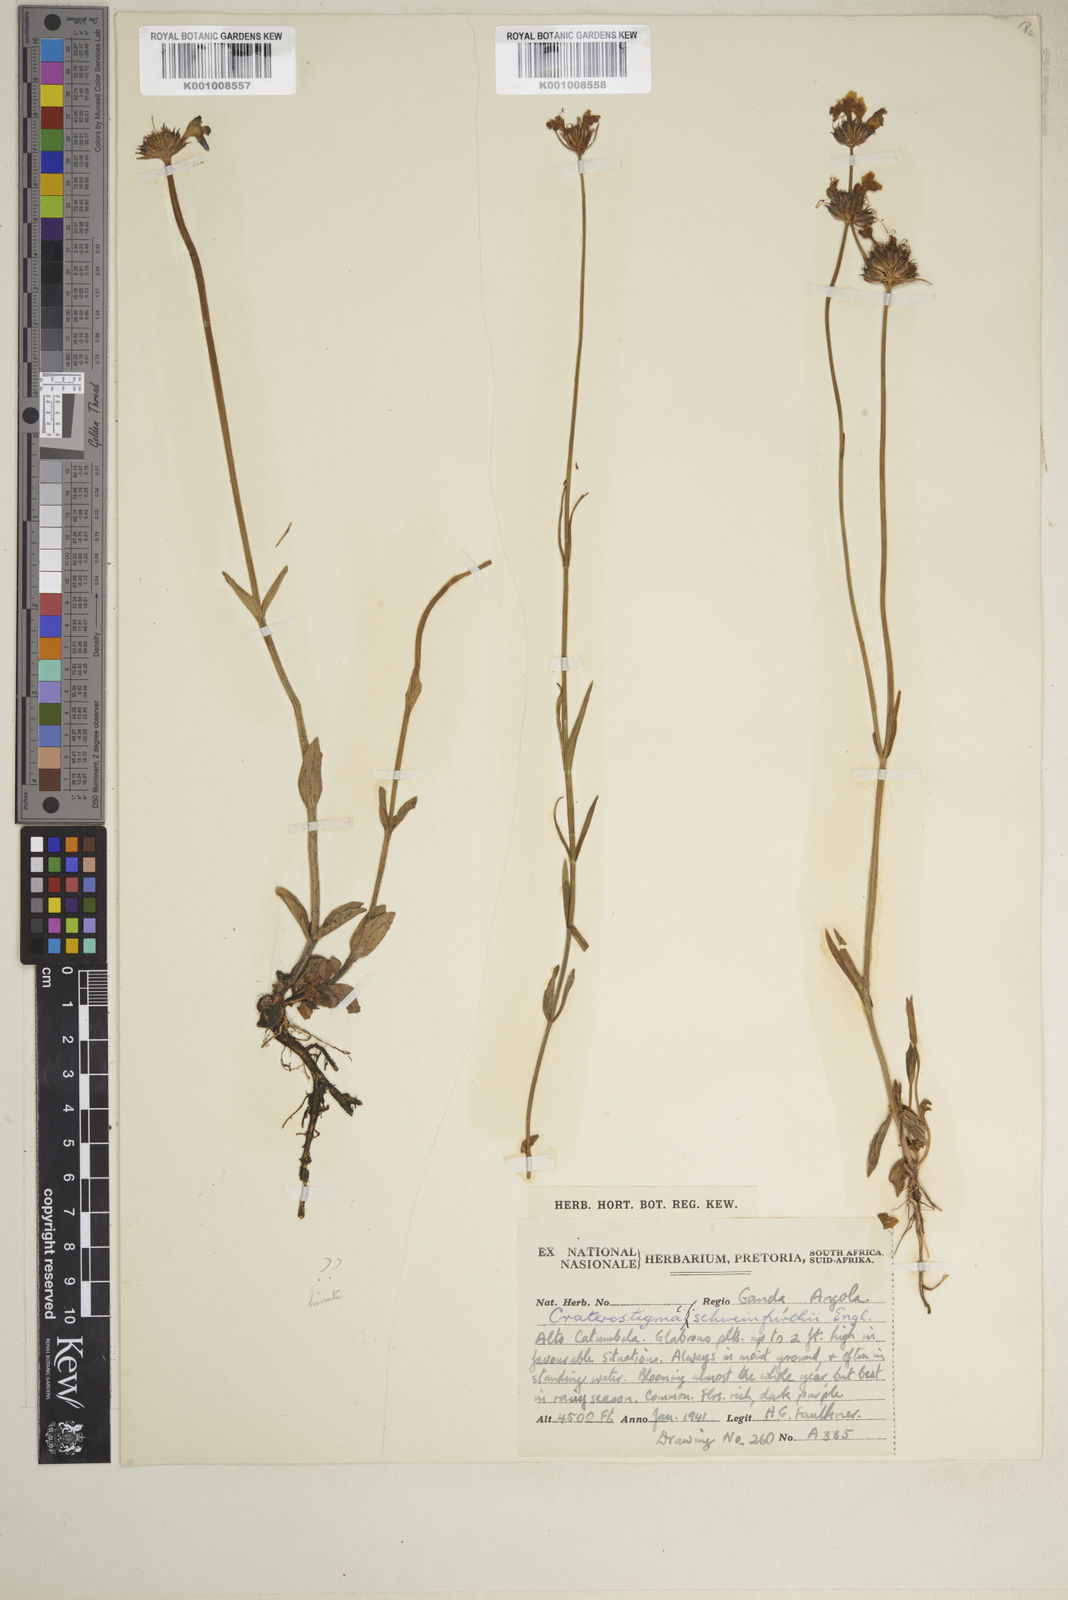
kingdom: Plantae
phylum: Tracheophyta
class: Magnoliopsida
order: Lamiales
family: Linderniaceae
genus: Crepidorhopalon
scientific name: Crepidorhopalon schweinfurthii
